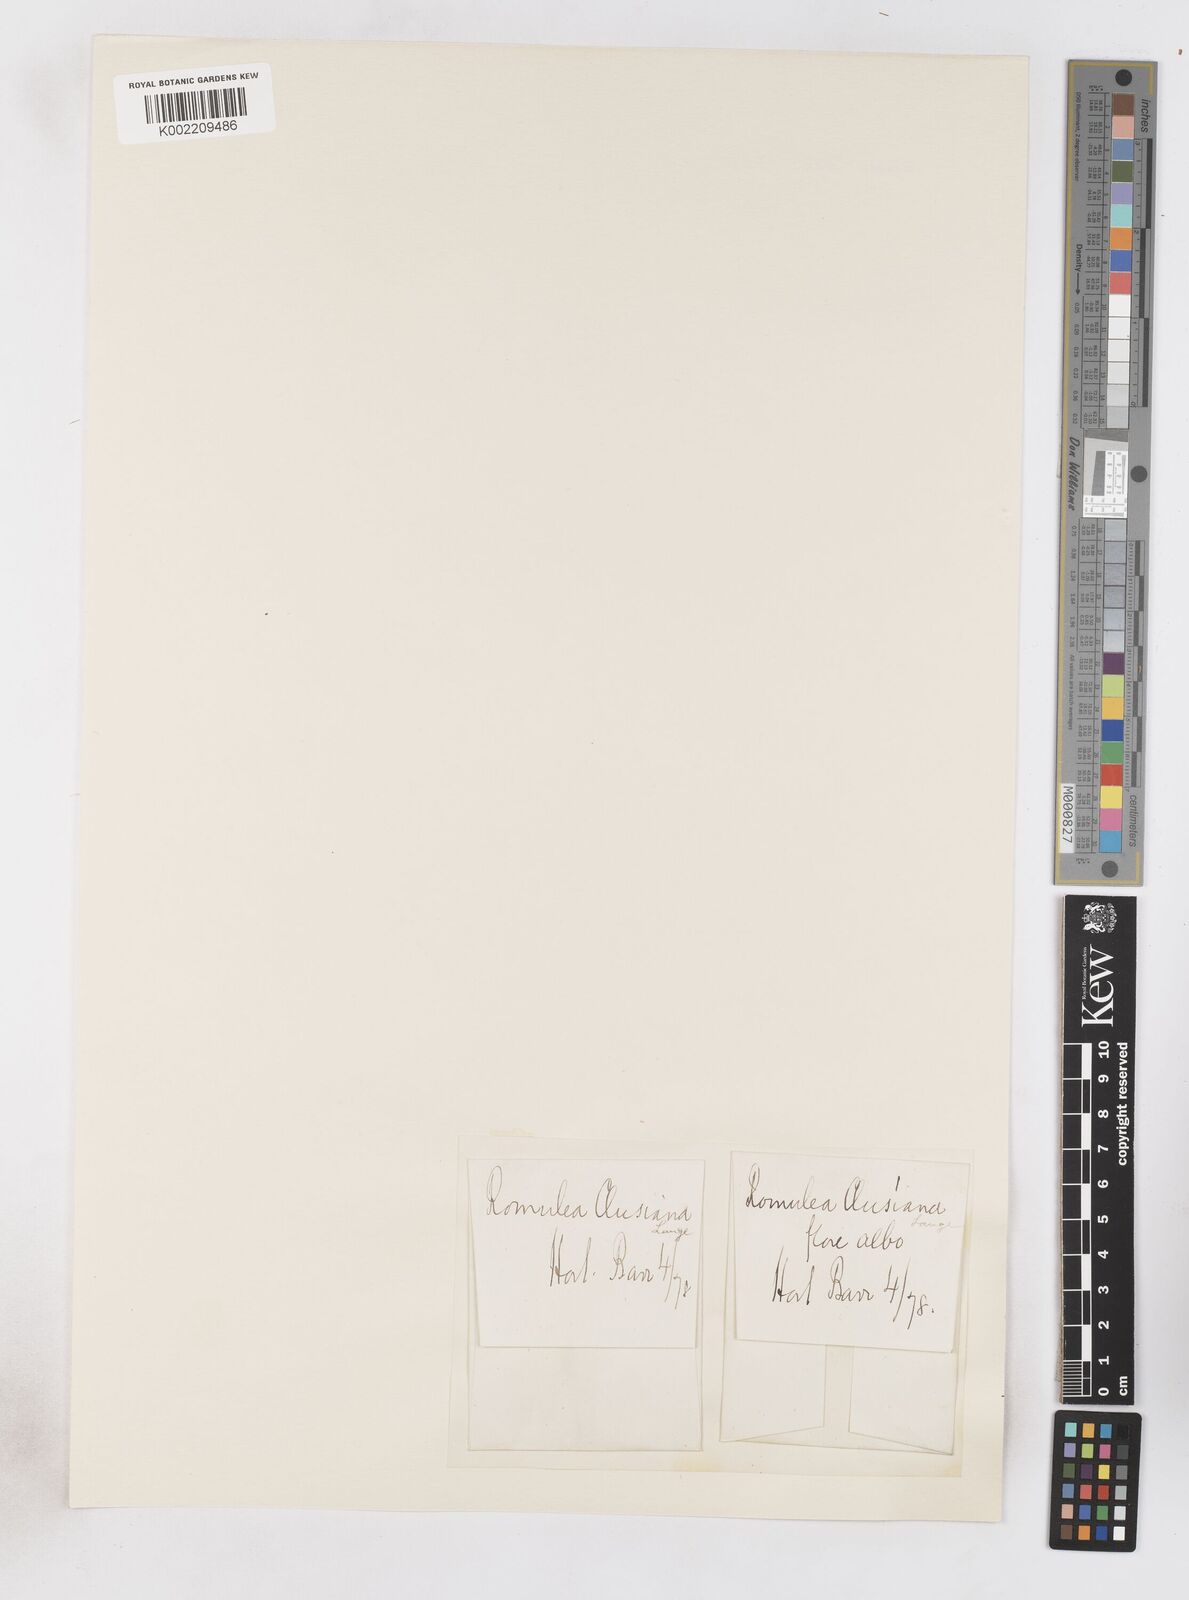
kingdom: Plantae
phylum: Tracheophyta
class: Liliopsida
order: Asparagales
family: Iridaceae
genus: Romulea
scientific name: Romulea clusiana
